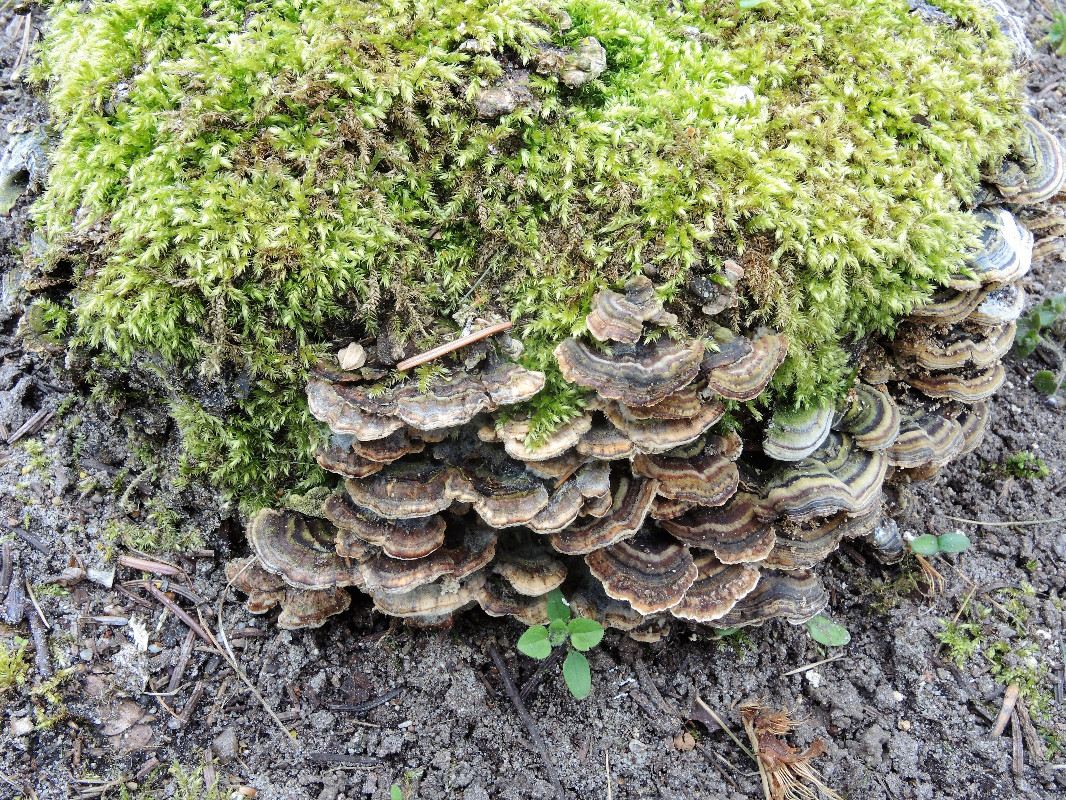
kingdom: Fungi
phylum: Basidiomycota
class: Agaricomycetes
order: Polyporales
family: Polyporaceae
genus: Trametes
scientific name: Trametes versicolor
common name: broget læderporesvamp
